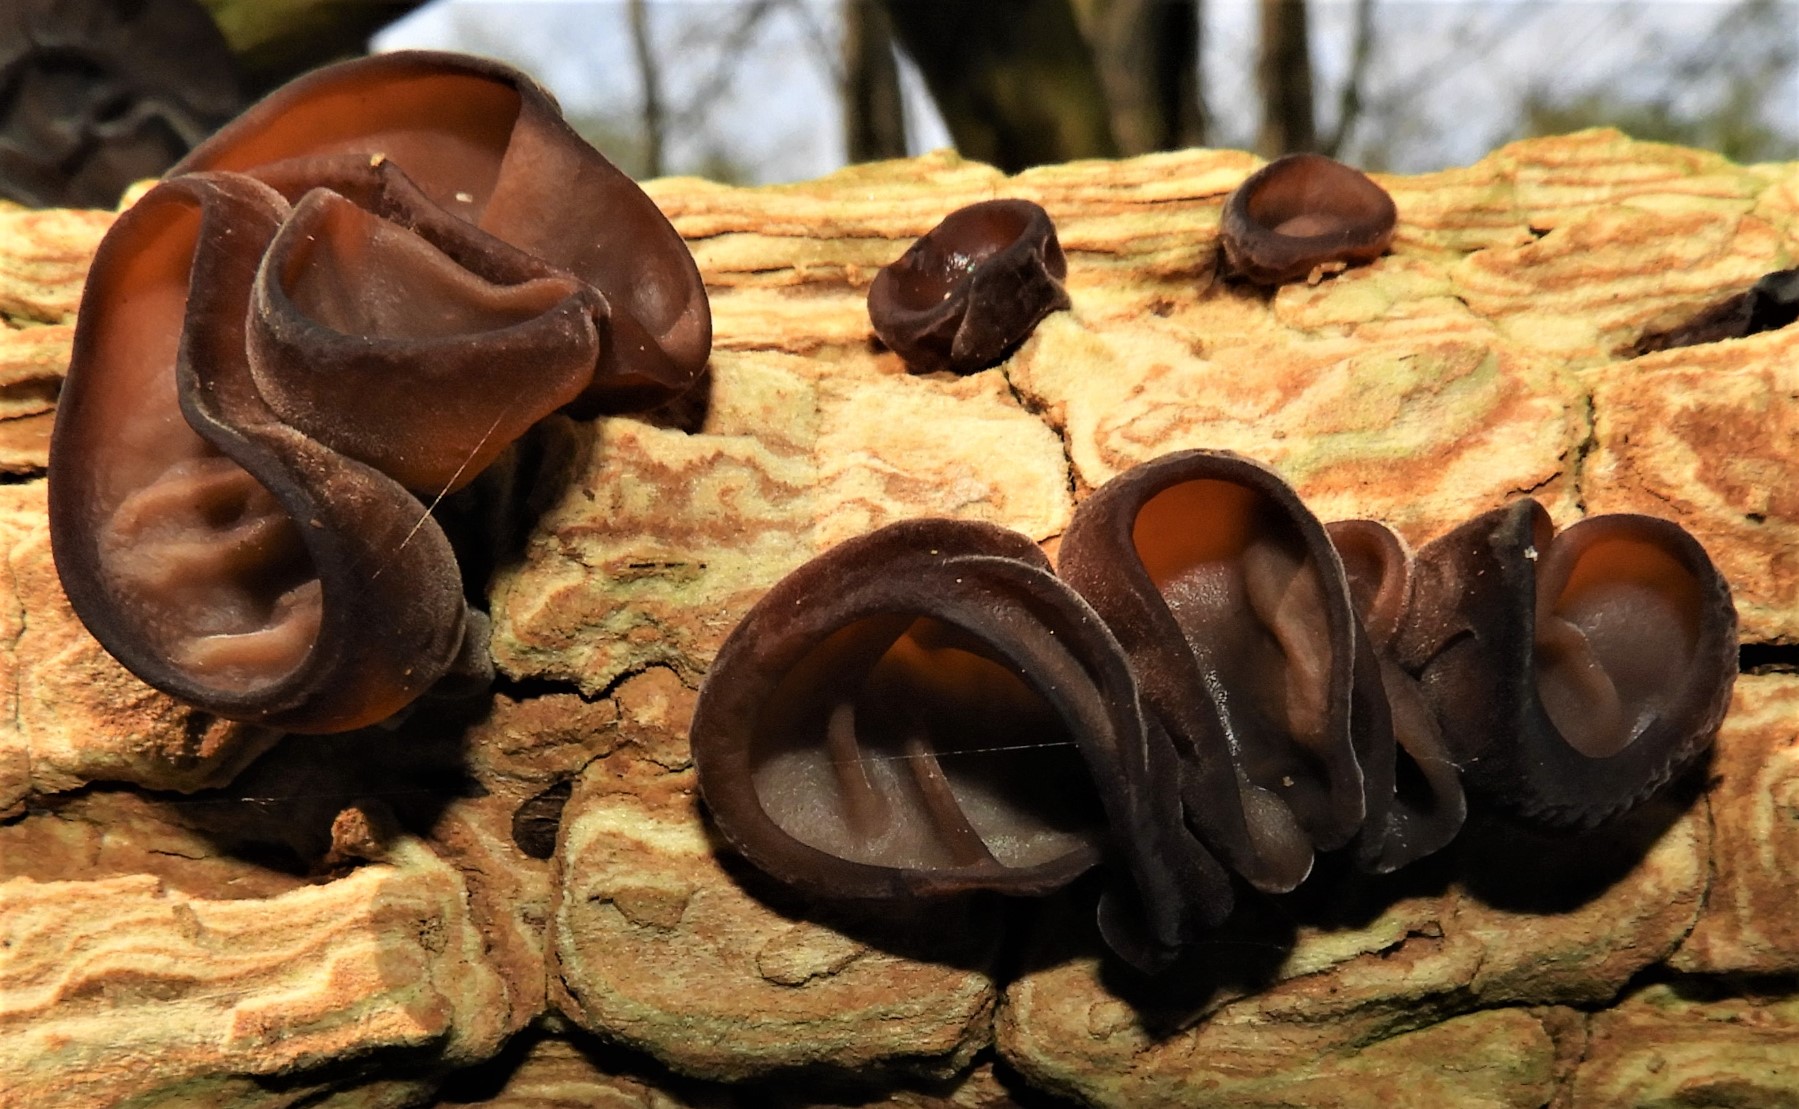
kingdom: Fungi
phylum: Basidiomycota
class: Agaricomycetes
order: Auriculariales
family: Auriculariaceae
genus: Auricularia
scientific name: Auricularia auricula-judae
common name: almindelig judasøre
